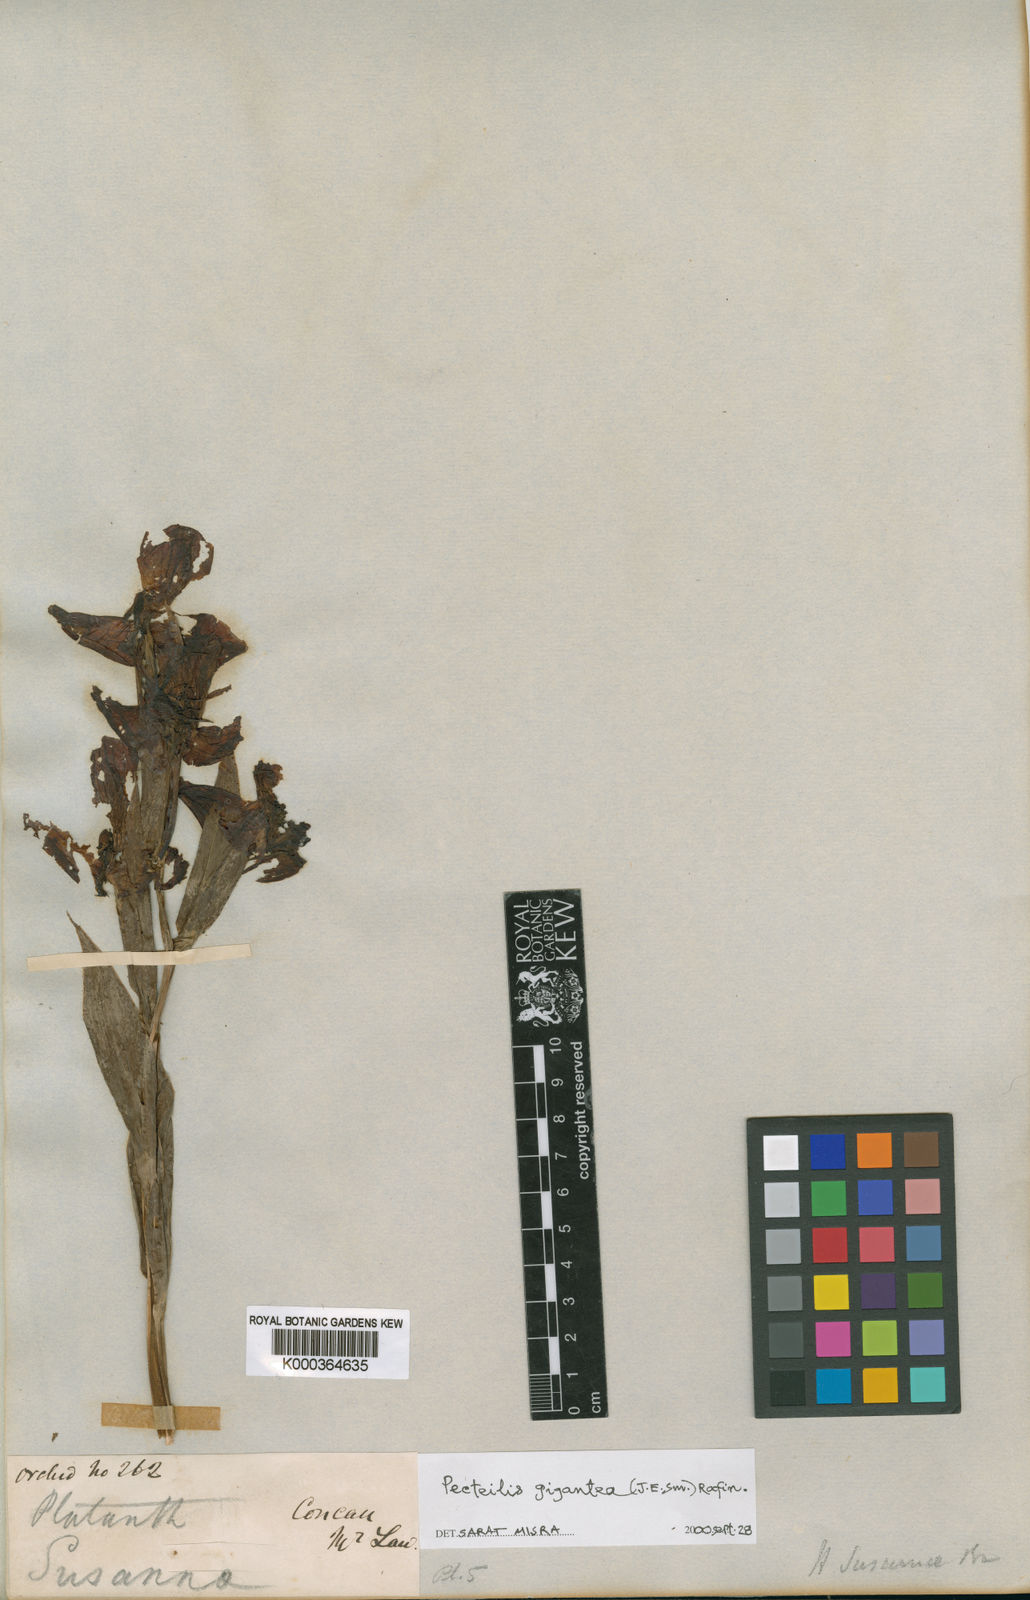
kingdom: Plantae
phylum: Tracheophyta
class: Liliopsida
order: Asparagales
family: Orchidaceae
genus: Pecteilis
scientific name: Pecteilis susannae
